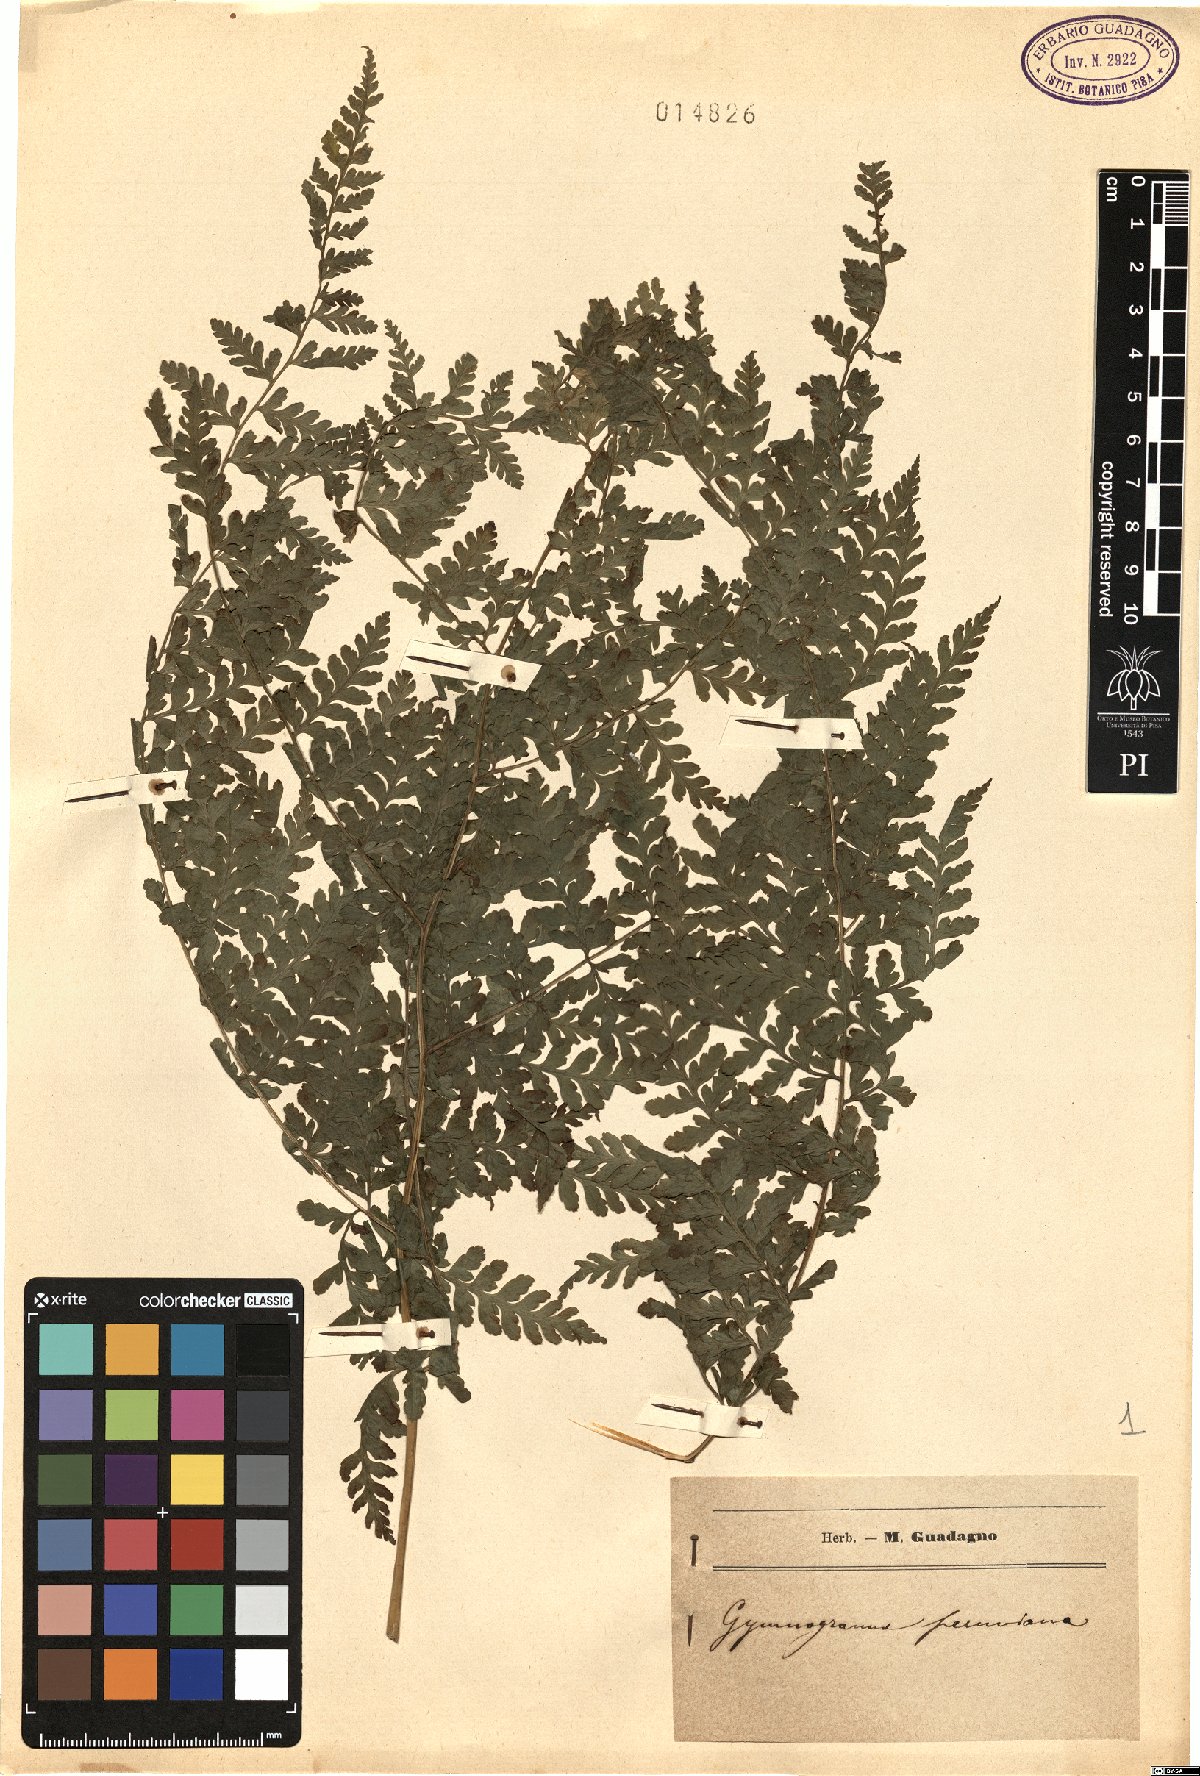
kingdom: Plantae
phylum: Tracheophyta
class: Polypodiopsida
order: Polypodiales
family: Pteridaceae
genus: Pityrogramma
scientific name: Pityrogramma ebenea
